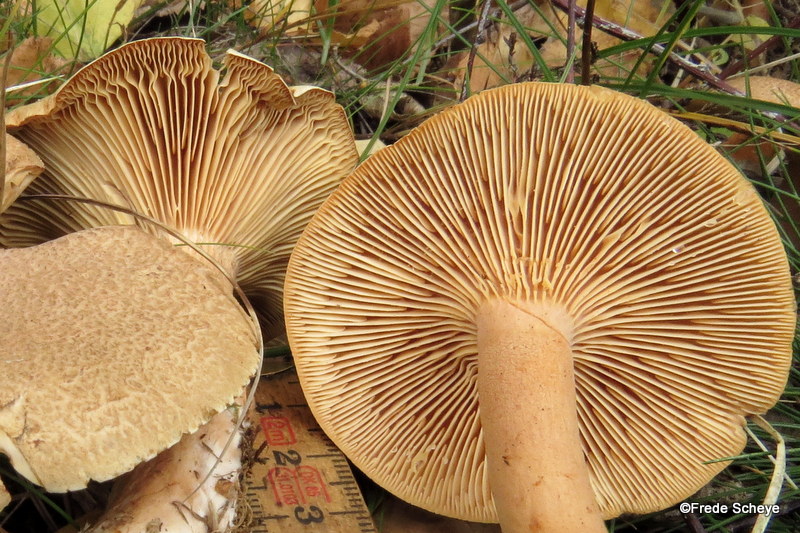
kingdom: Fungi
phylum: Basidiomycota
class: Agaricomycetes
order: Russulales
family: Russulaceae
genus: Lactarius
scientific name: Lactarius helvus
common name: mose-mælkehat
